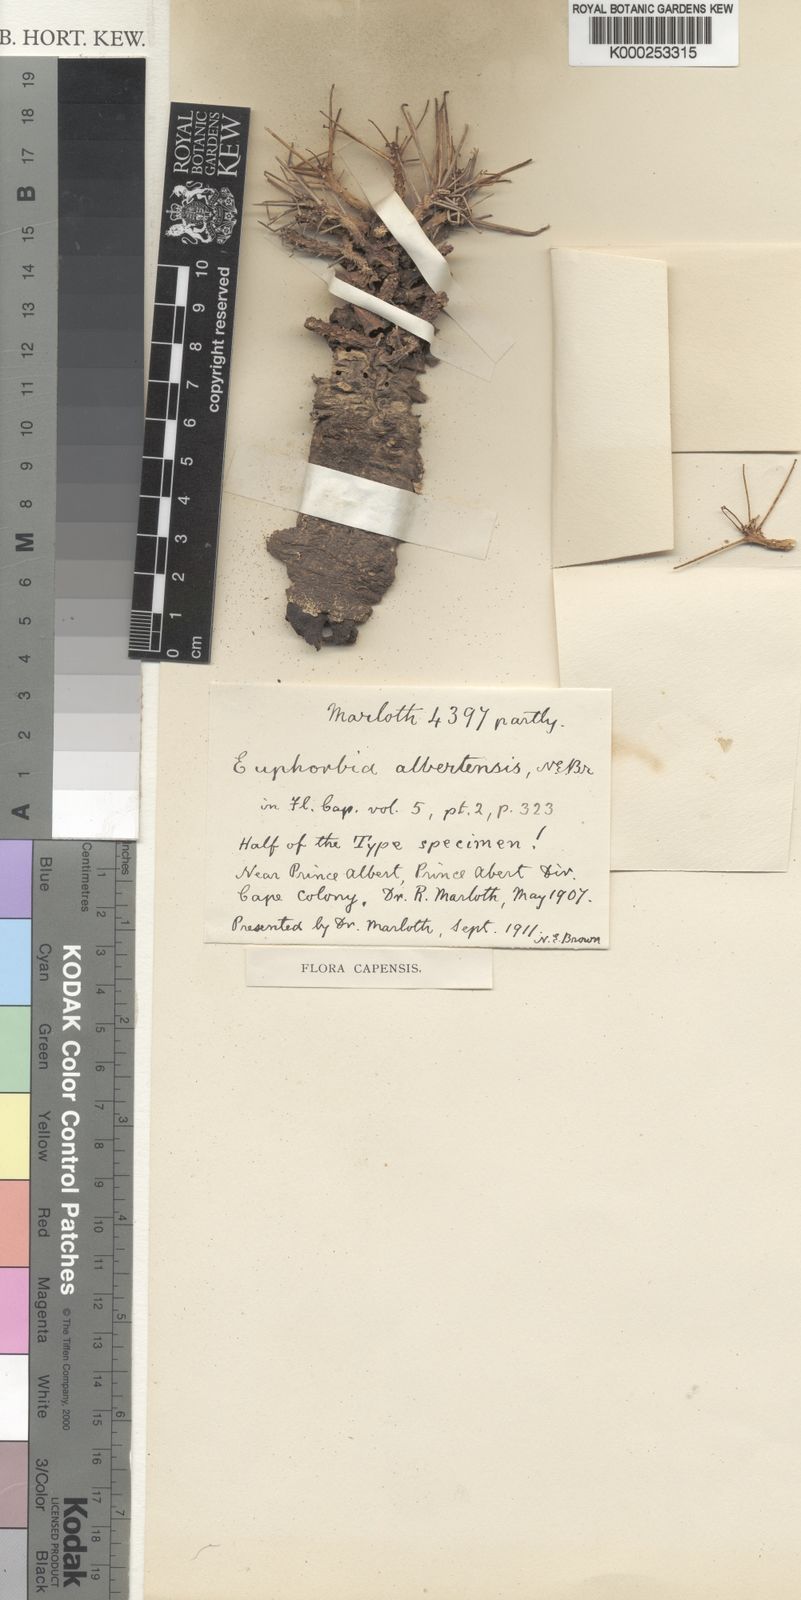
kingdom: Plantae
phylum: Tracheophyta
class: Magnoliopsida
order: Malpighiales
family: Euphorbiaceae
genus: Euphorbia
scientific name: Euphorbia decepta
